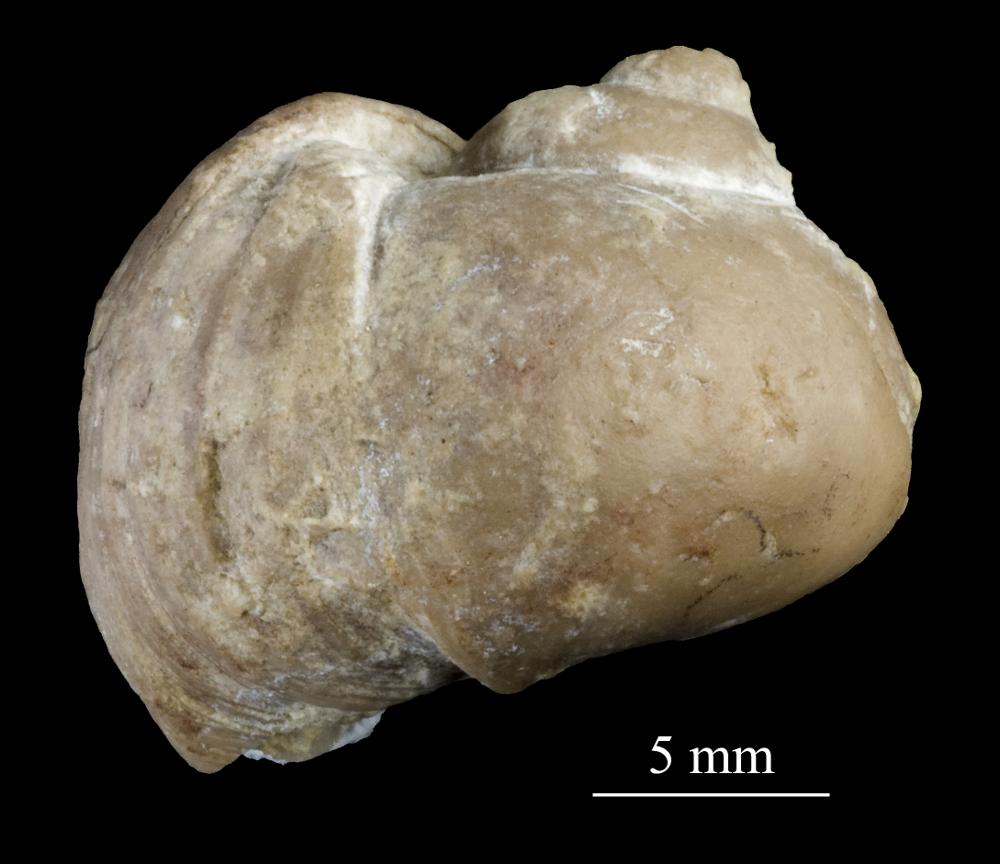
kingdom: Animalia
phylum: Mollusca
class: Gastropoda
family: Platyceratidae
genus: Platyceras
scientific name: Platyceras
